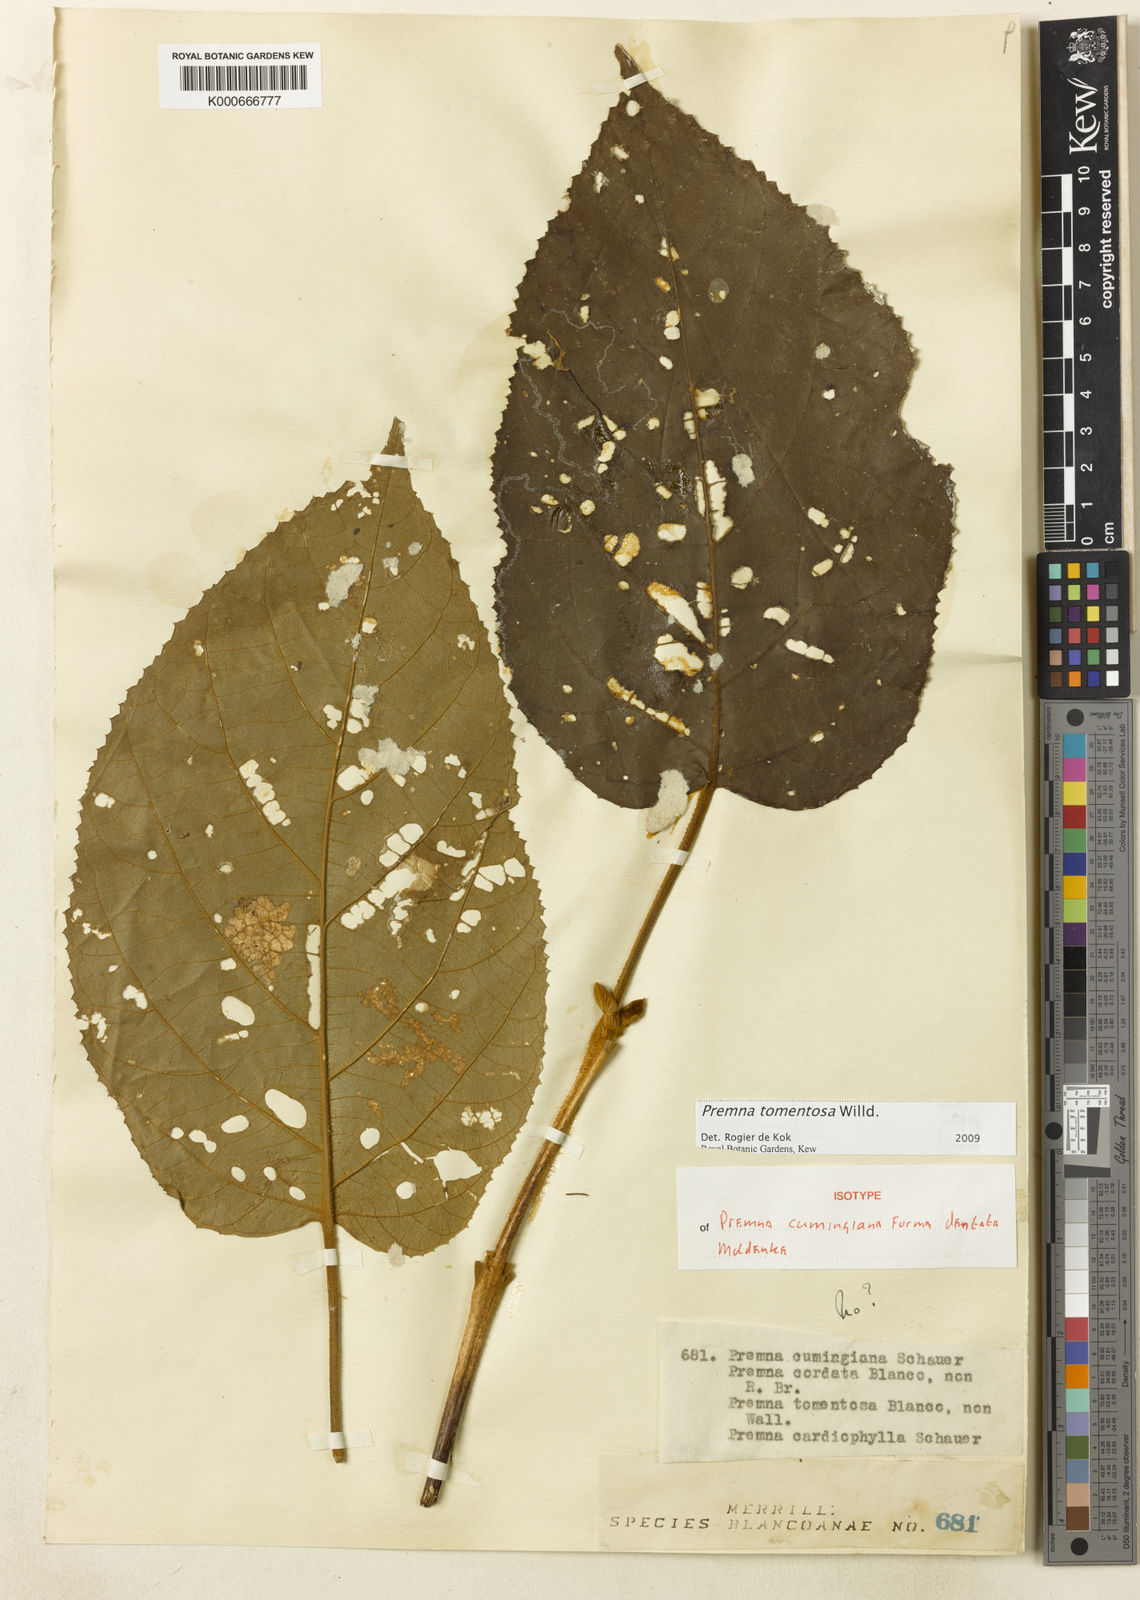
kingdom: Plantae
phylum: Tracheophyta
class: Magnoliopsida
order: Lamiales
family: Lamiaceae
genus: Premna
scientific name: Premna tomentosa
